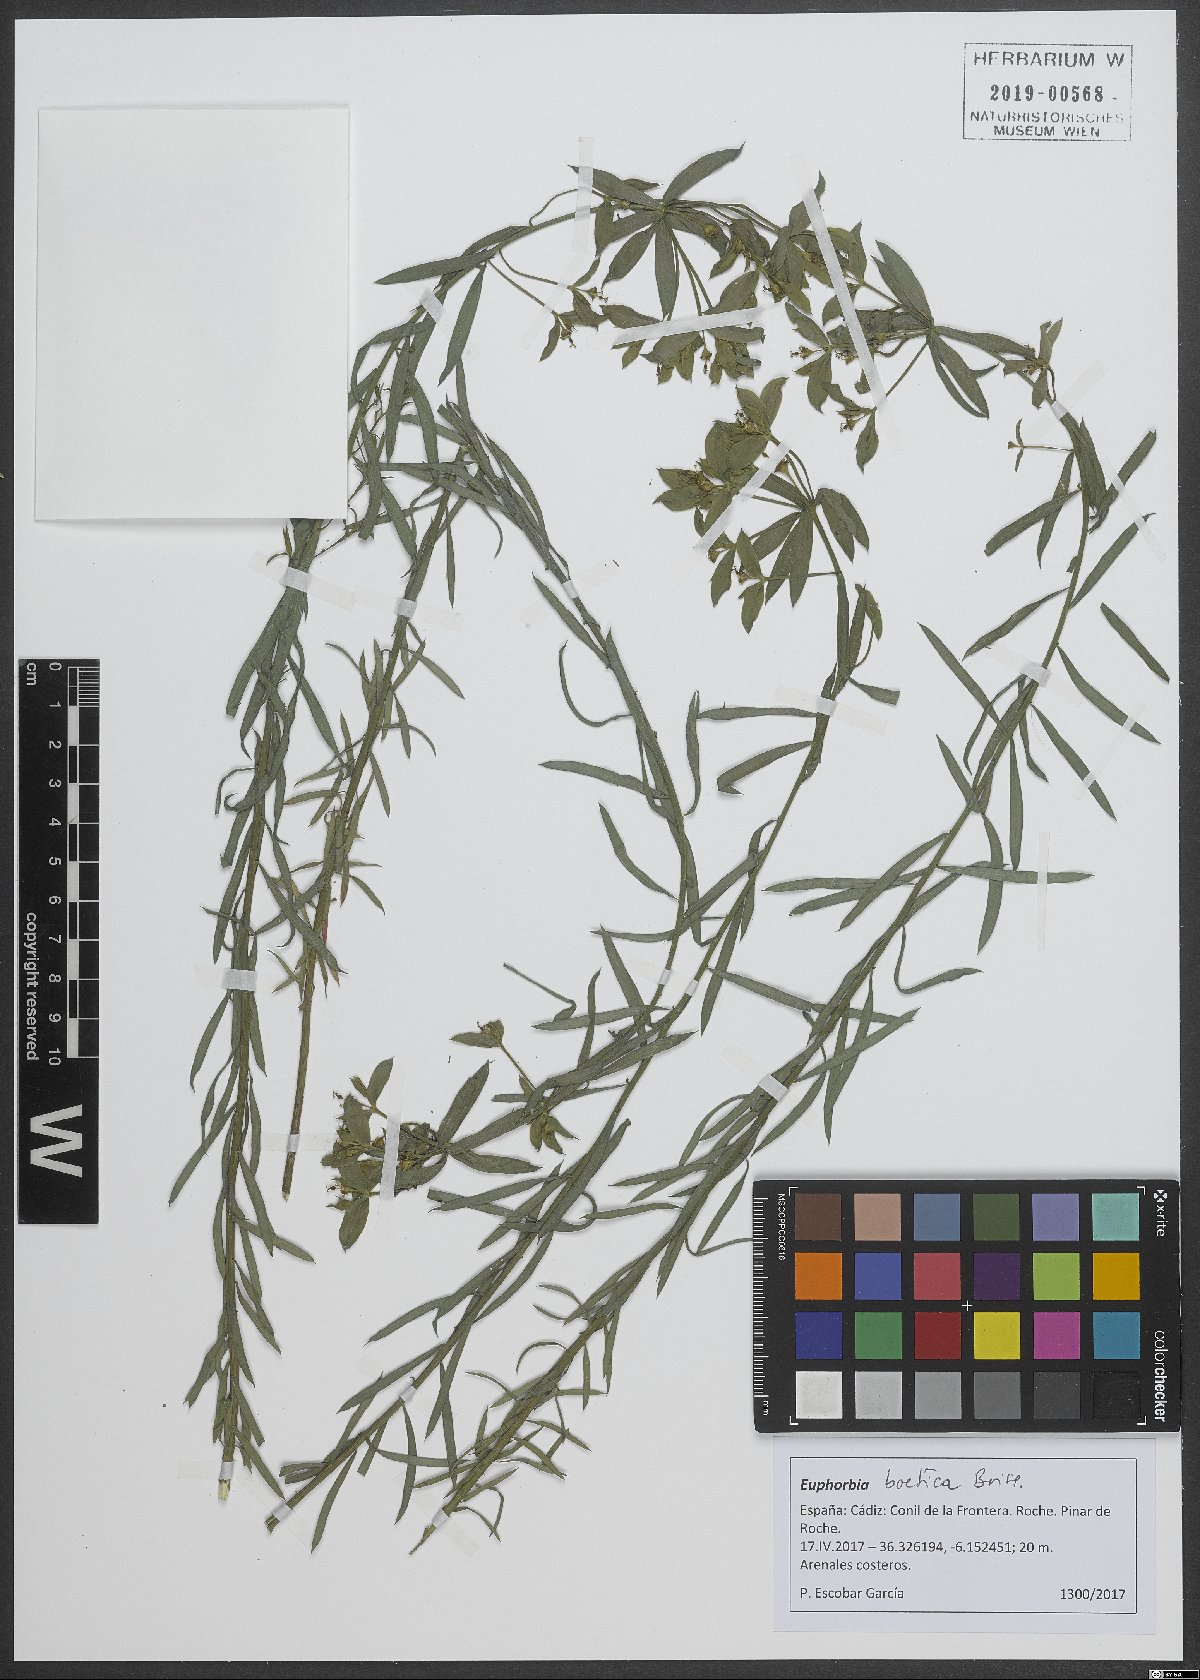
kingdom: Plantae
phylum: Tracheophyta
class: Magnoliopsida
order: Malpighiales
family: Euphorbiaceae
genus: Euphorbia
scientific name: Euphorbia boetica
